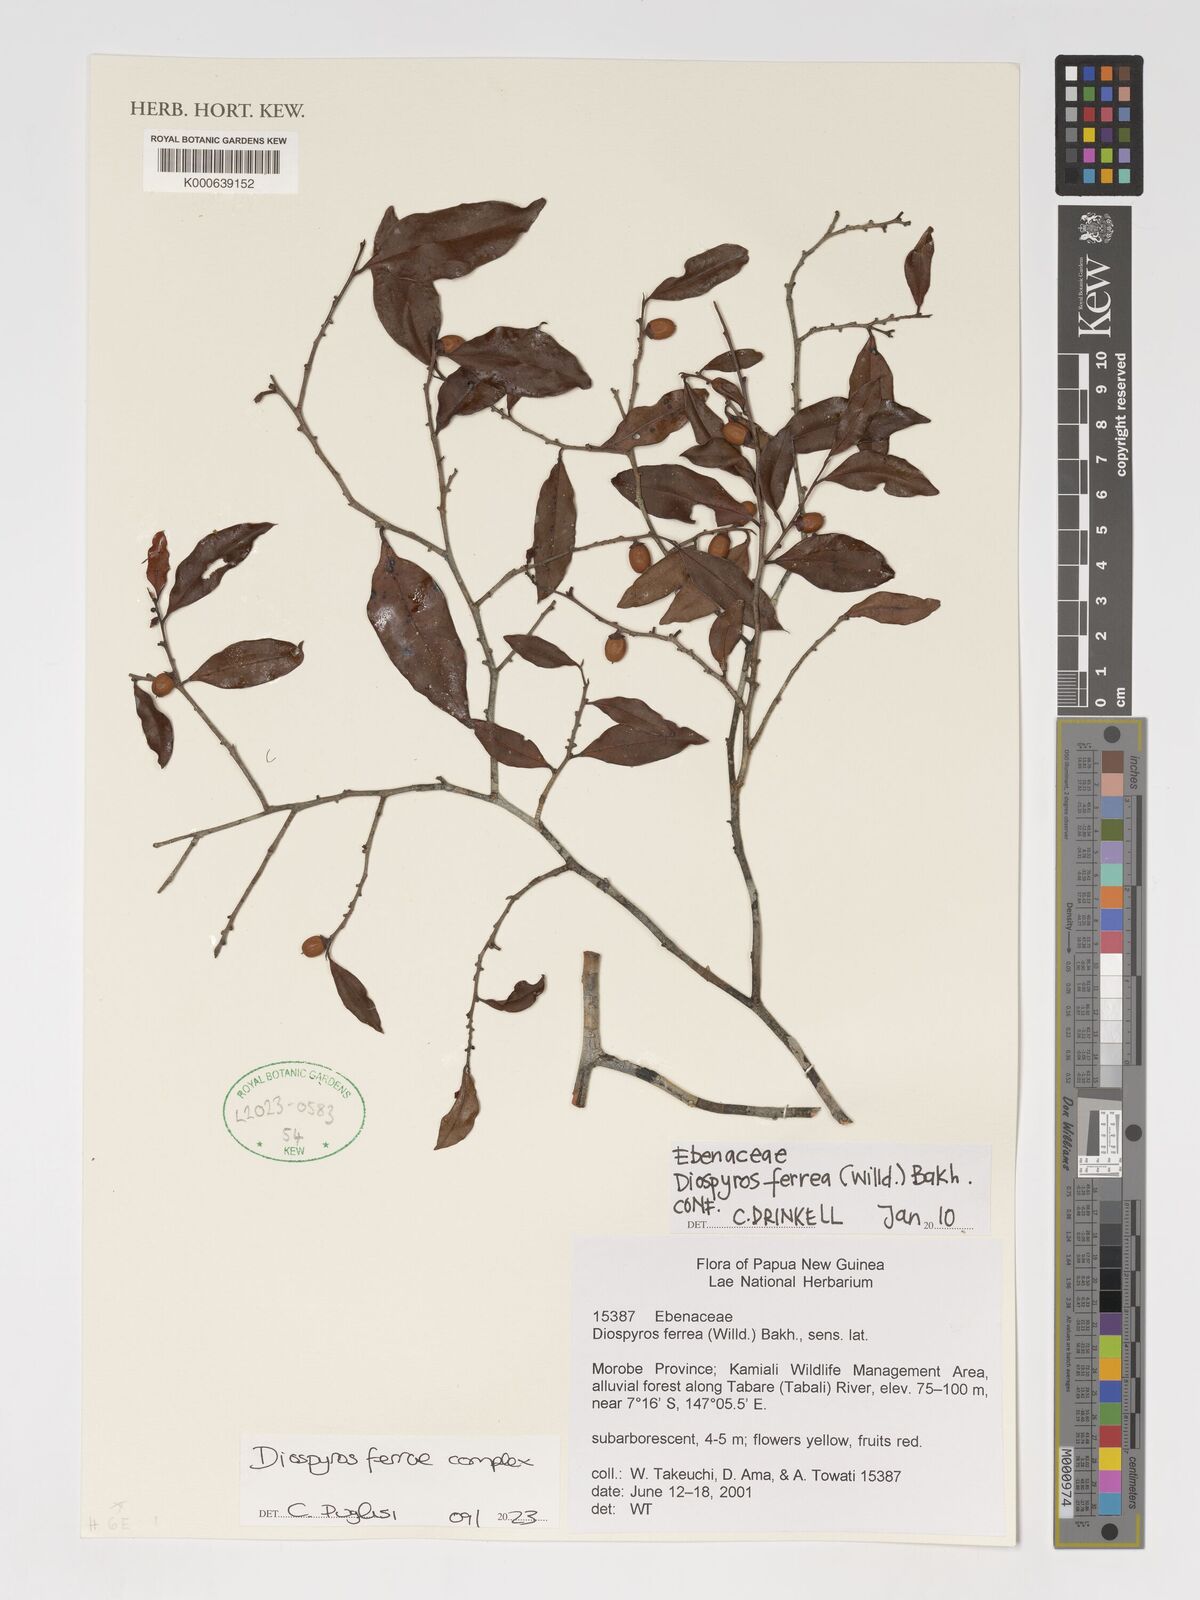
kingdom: Plantae
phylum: Tracheophyta
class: Magnoliopsida
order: Ericales
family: Ebenaceae
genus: Diospyros
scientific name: Diospyros ferrea
